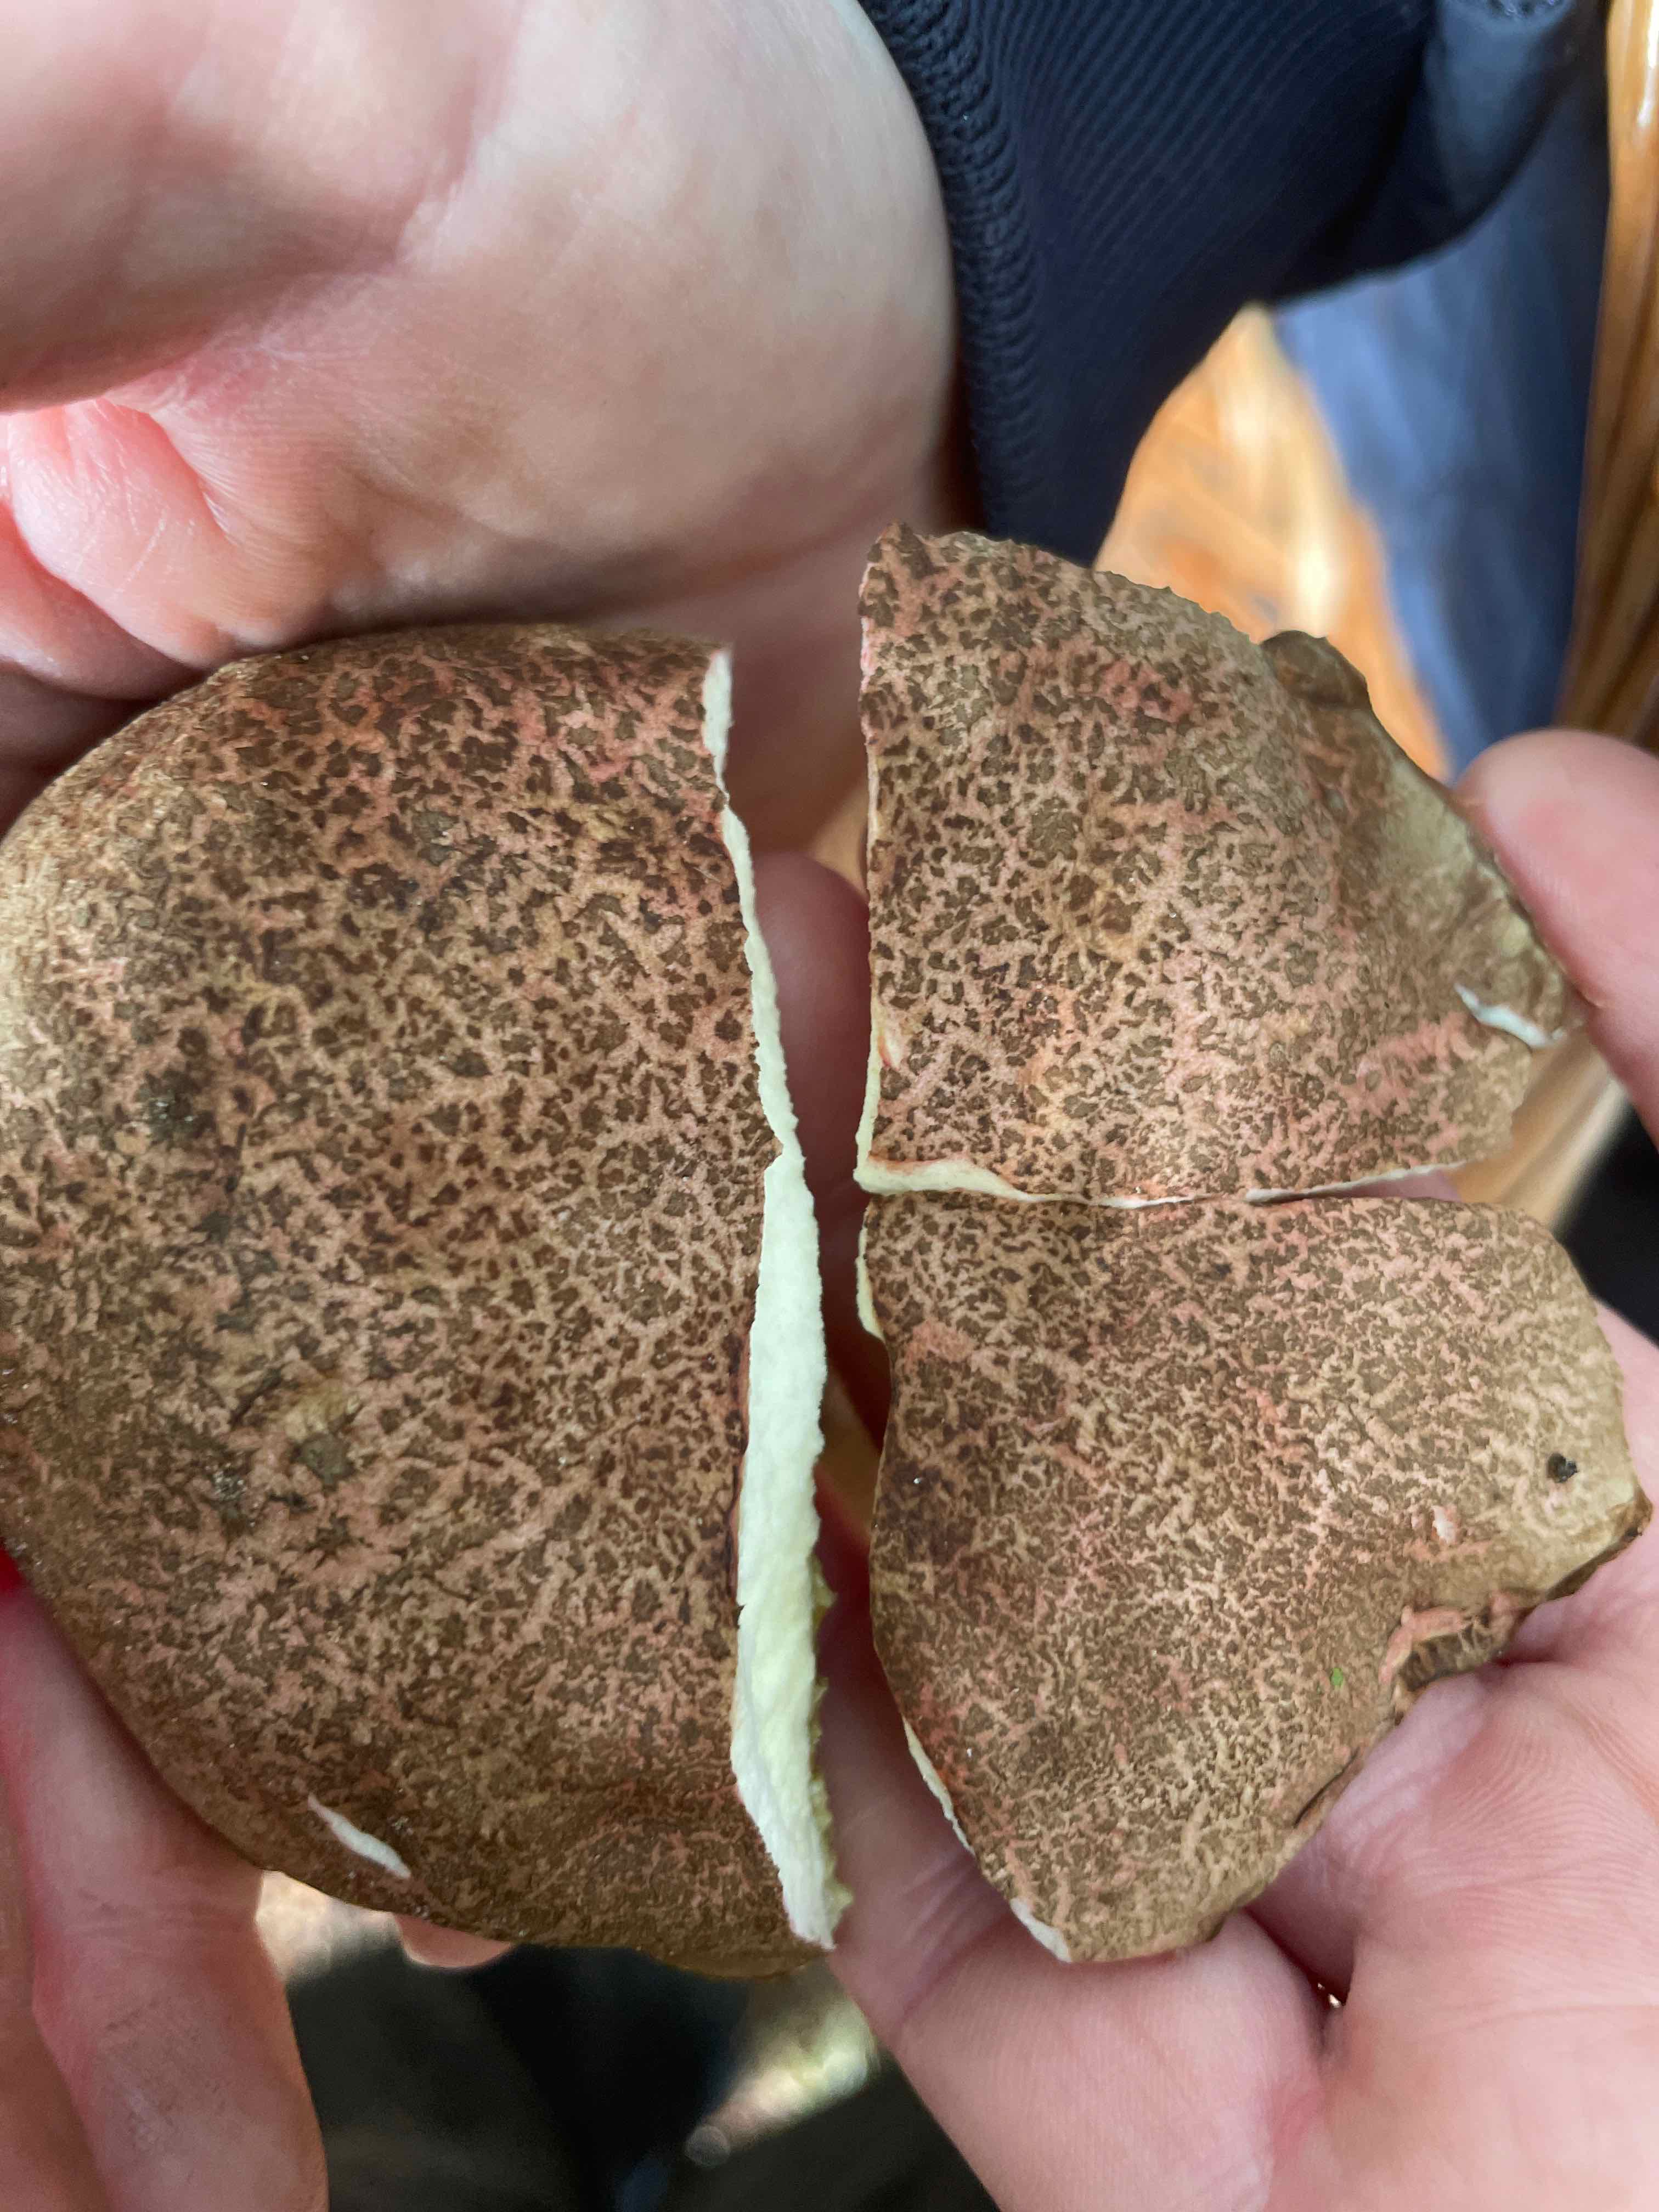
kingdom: Fungi
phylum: Basidiomycota
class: Agaricomycetes
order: Boletales
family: Boletaceae
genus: Xerocomellus
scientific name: Xerocomellus cisalpinus
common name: finsprukken rørhat
